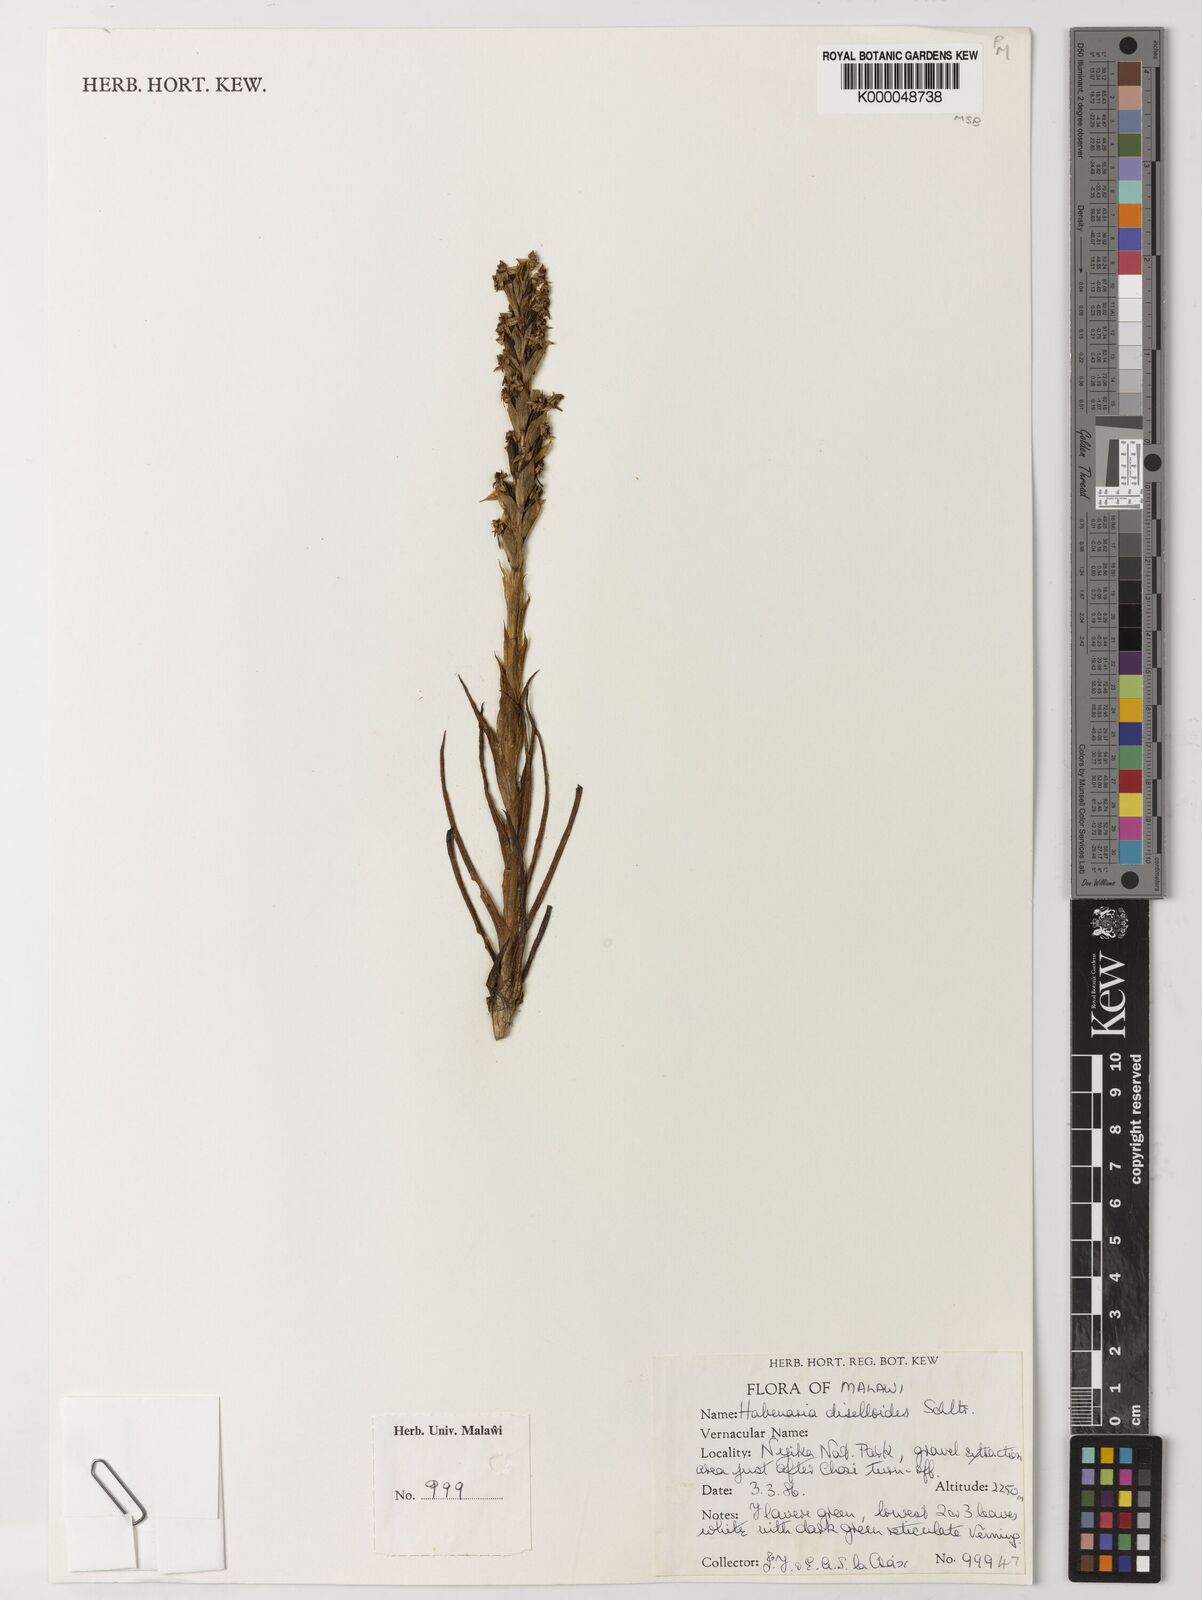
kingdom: Plantae
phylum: Tracheophyta
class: Liliopsida
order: Asparagales
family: Orchidaceae
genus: Habenaria
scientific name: Habenaria diselloides
